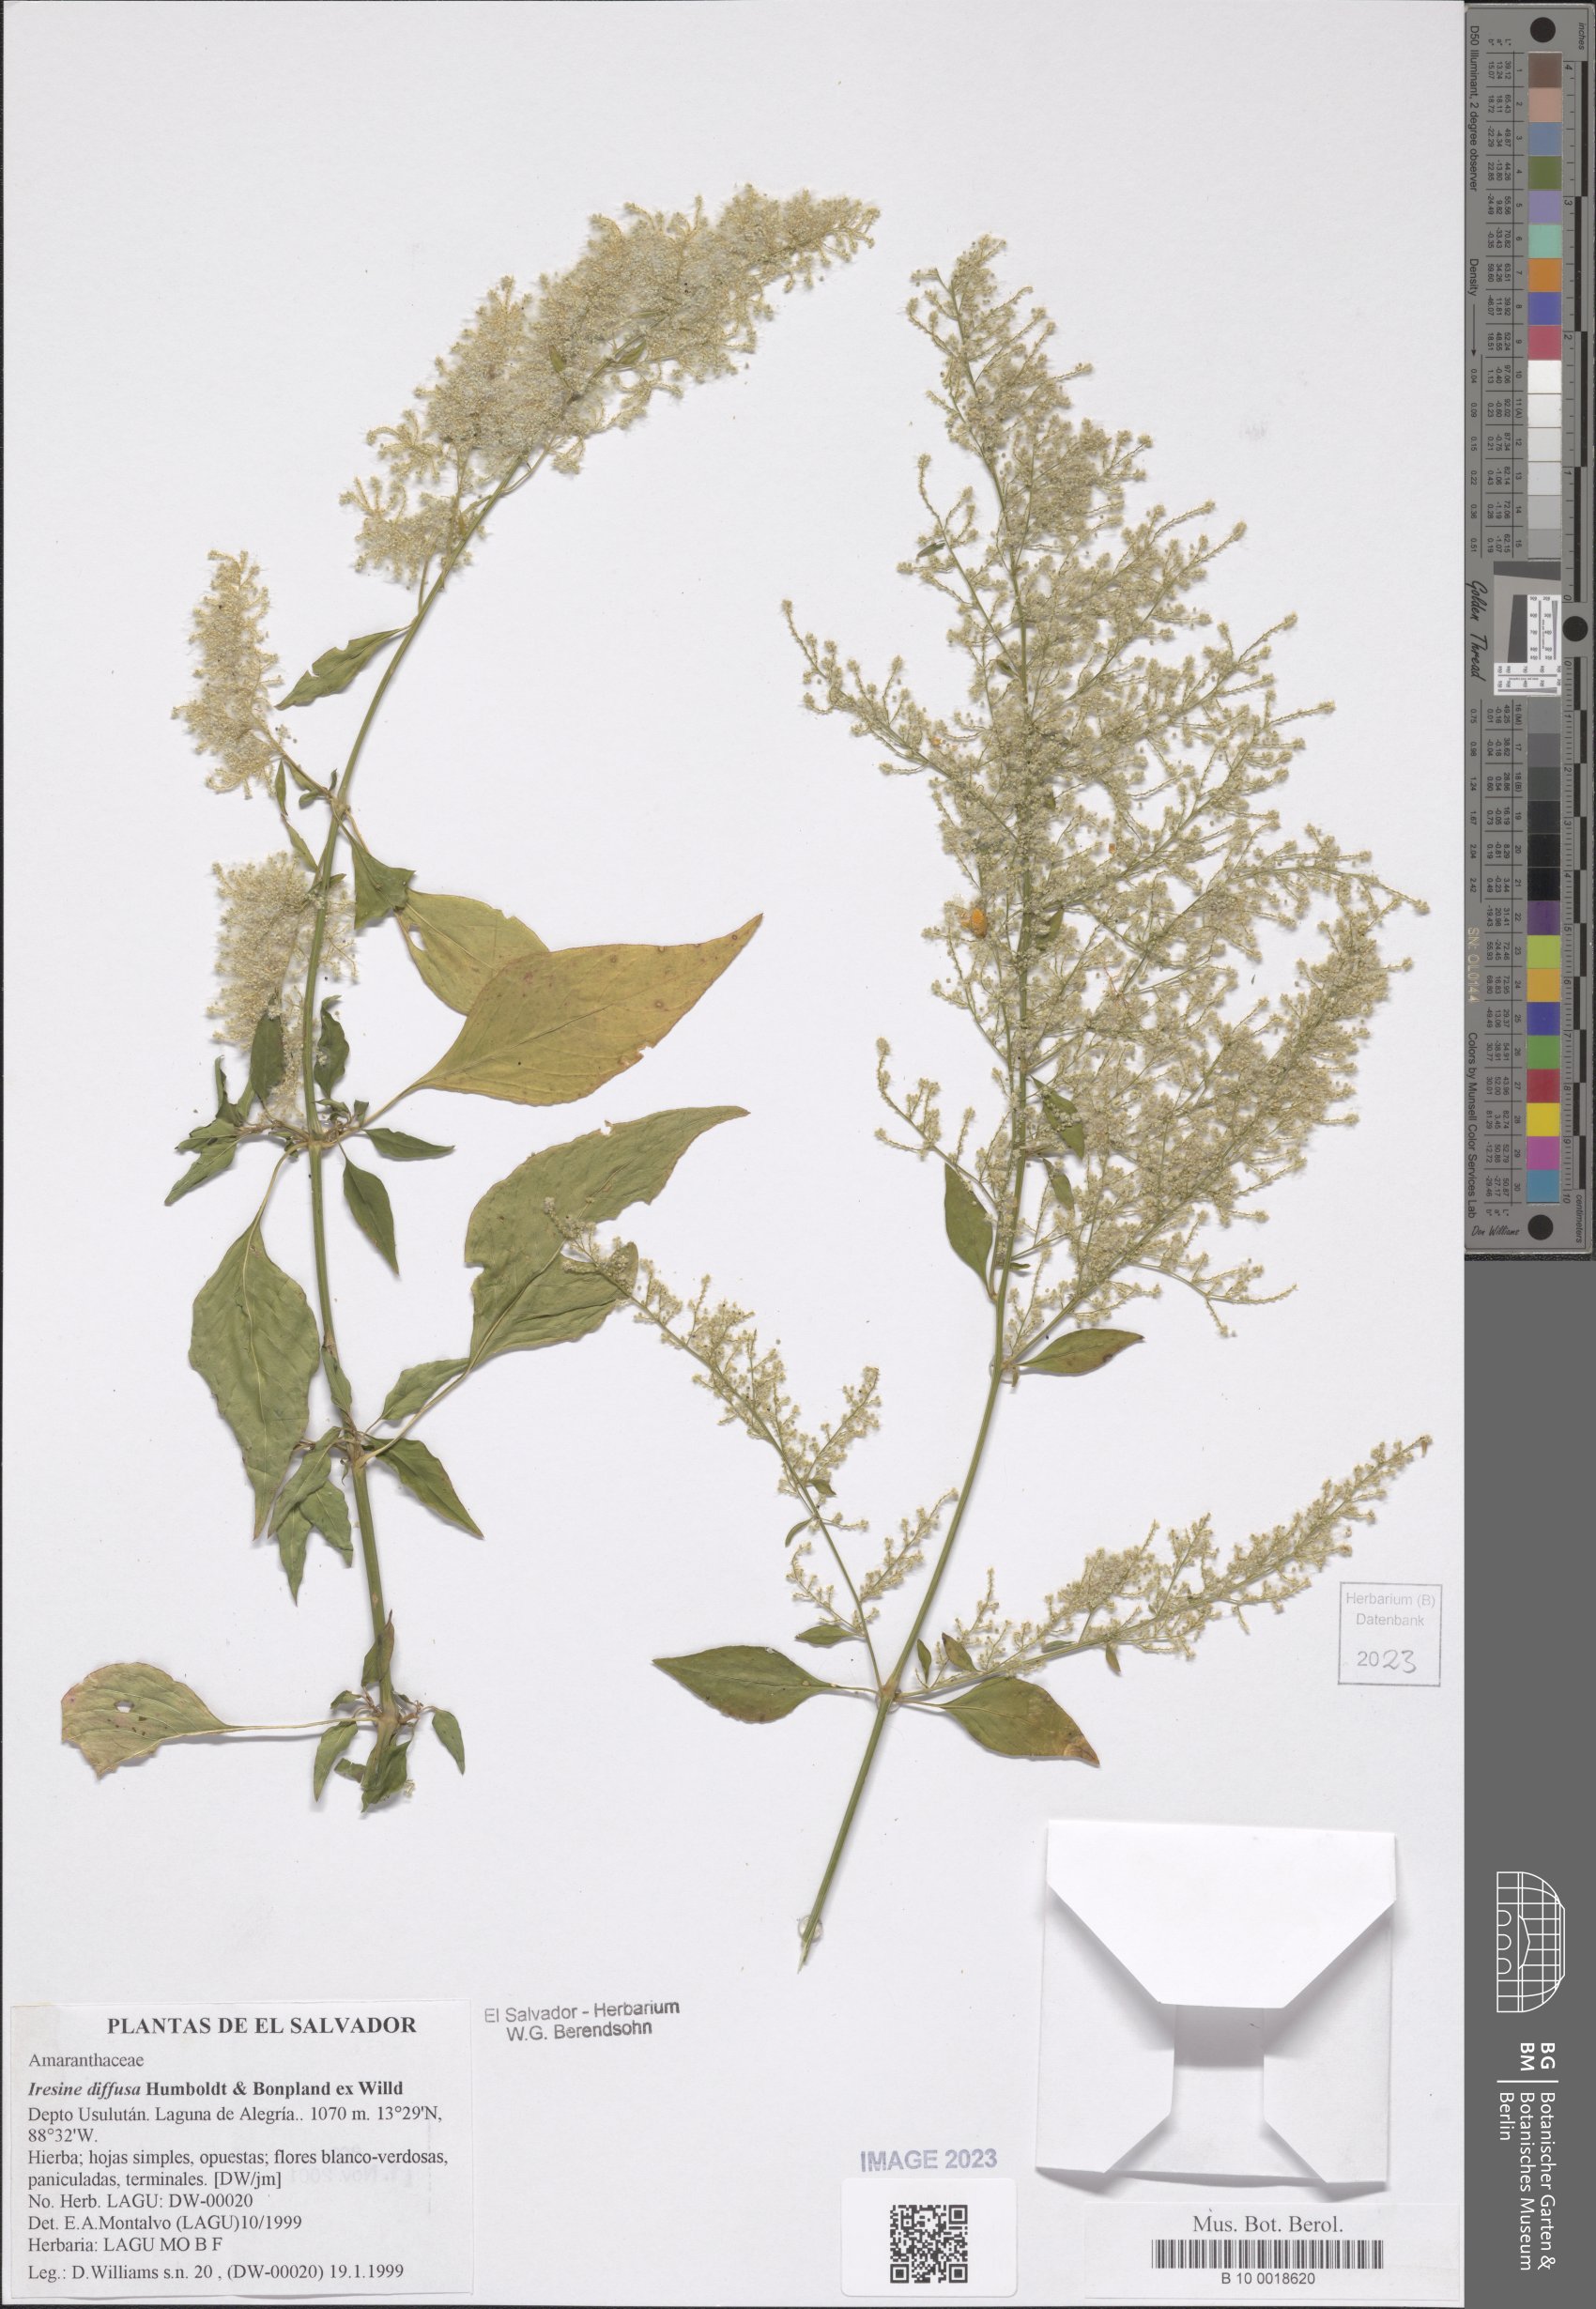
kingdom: Plantae
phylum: Tracheophyta
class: Magnoliopsida
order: Caryophyllales
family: Amaranthaceae
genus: Iresine
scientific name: Iresine diffusa
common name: Juba's-bush
